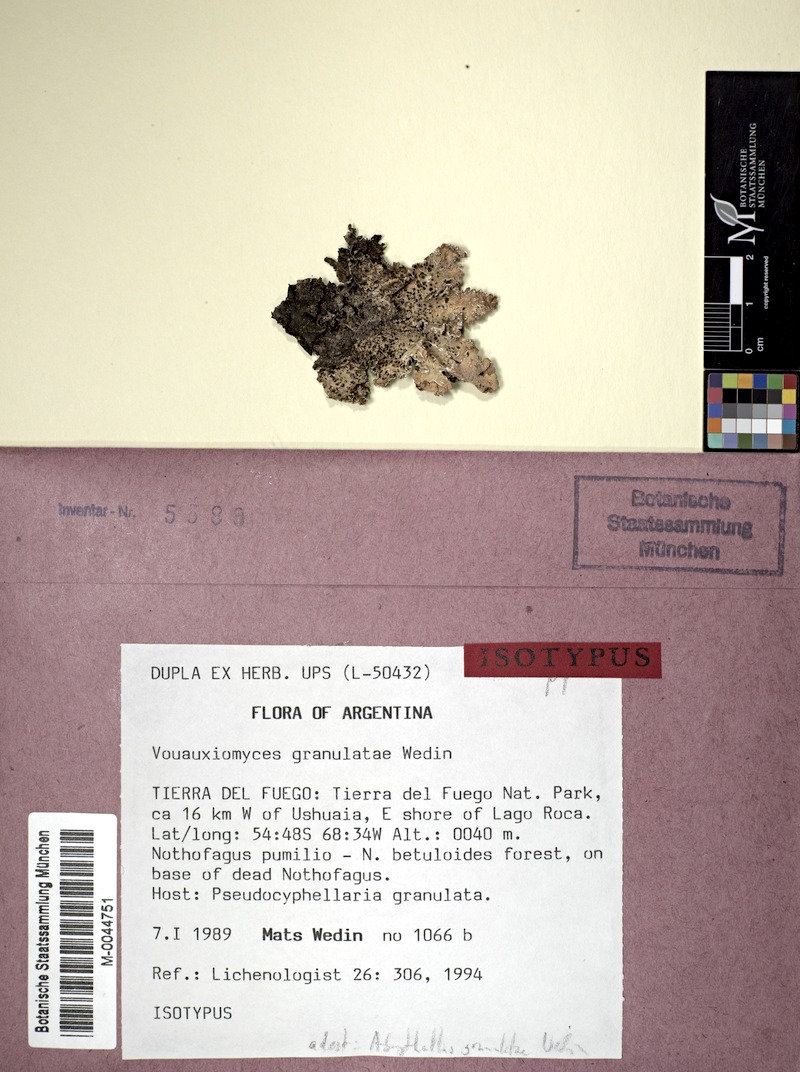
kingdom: Fungi
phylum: Ascomycota
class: Dothideomycetes
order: Pleosporales
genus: Vouauxiomyces
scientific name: Vouauxiomyces granulatae
